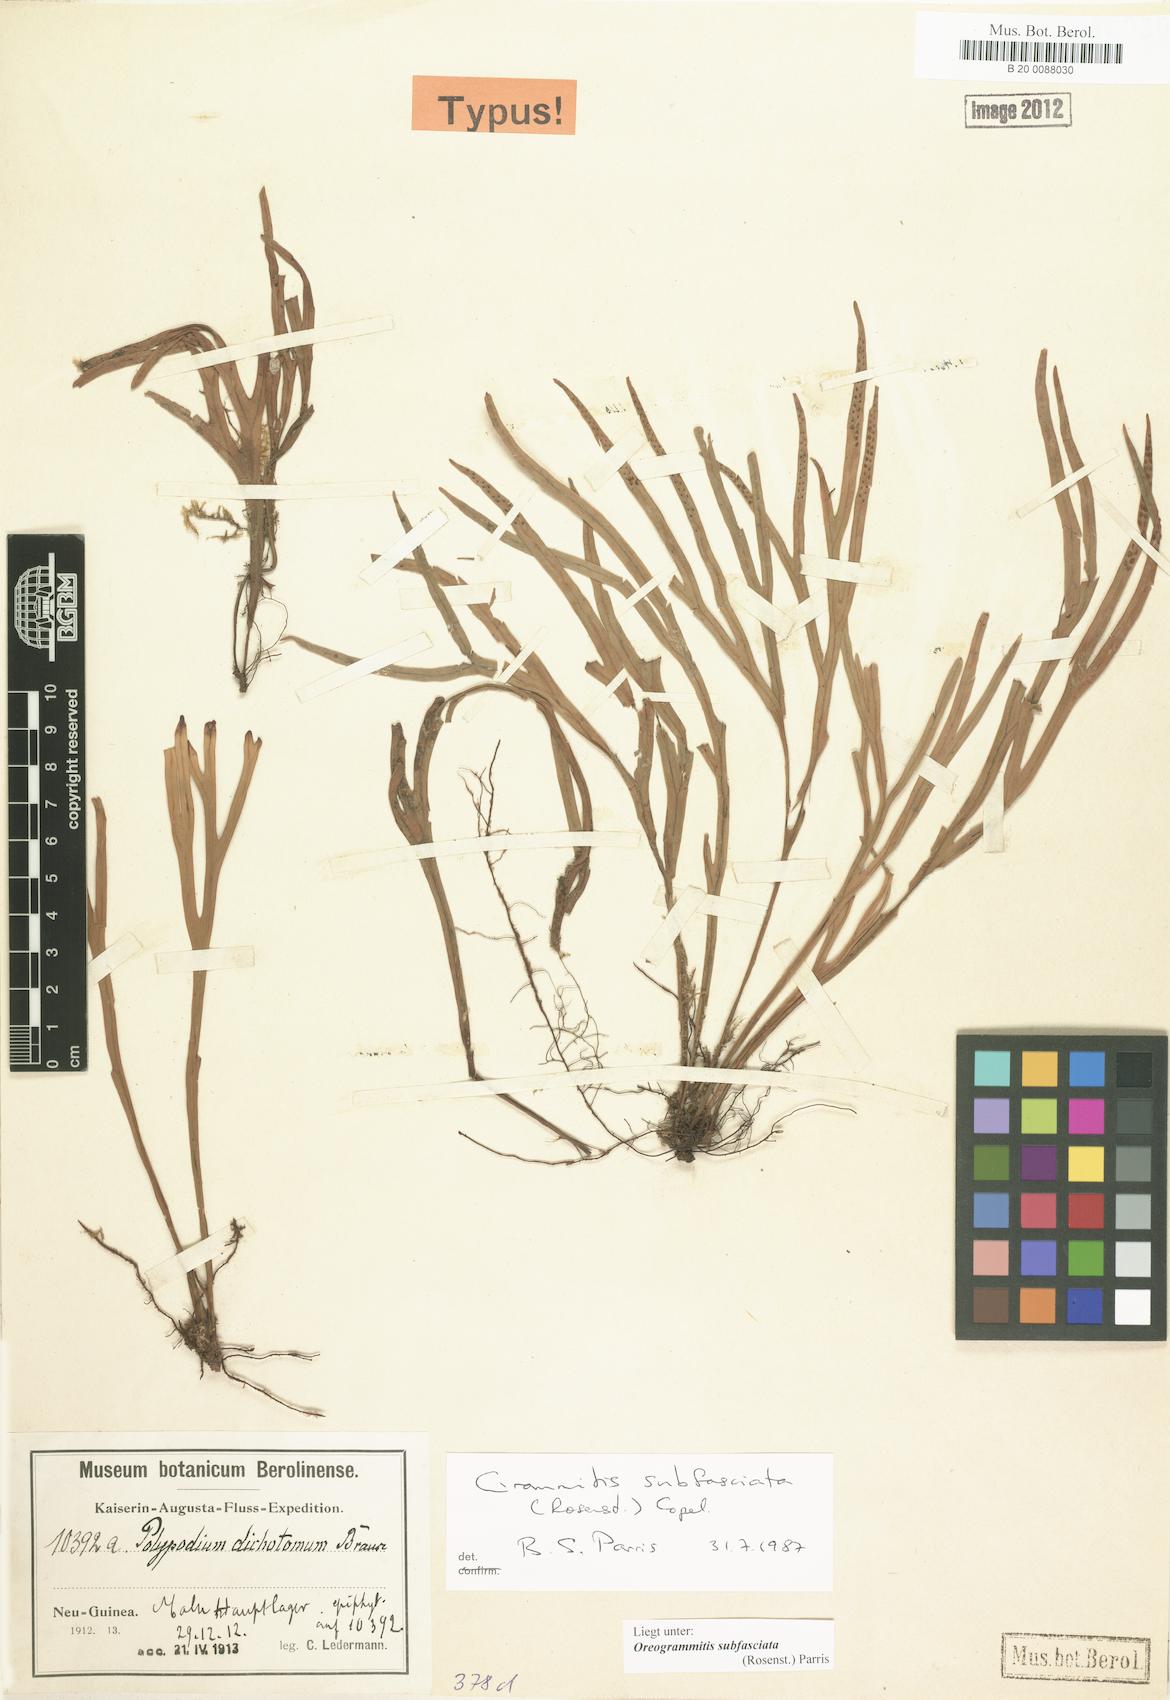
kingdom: Plantae
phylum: Tracheophyta
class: Polypodiopsida
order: Polypodiales
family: Polypodiaceae
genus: Oreogrammitis
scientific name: Oreogrammitis subfasciata
